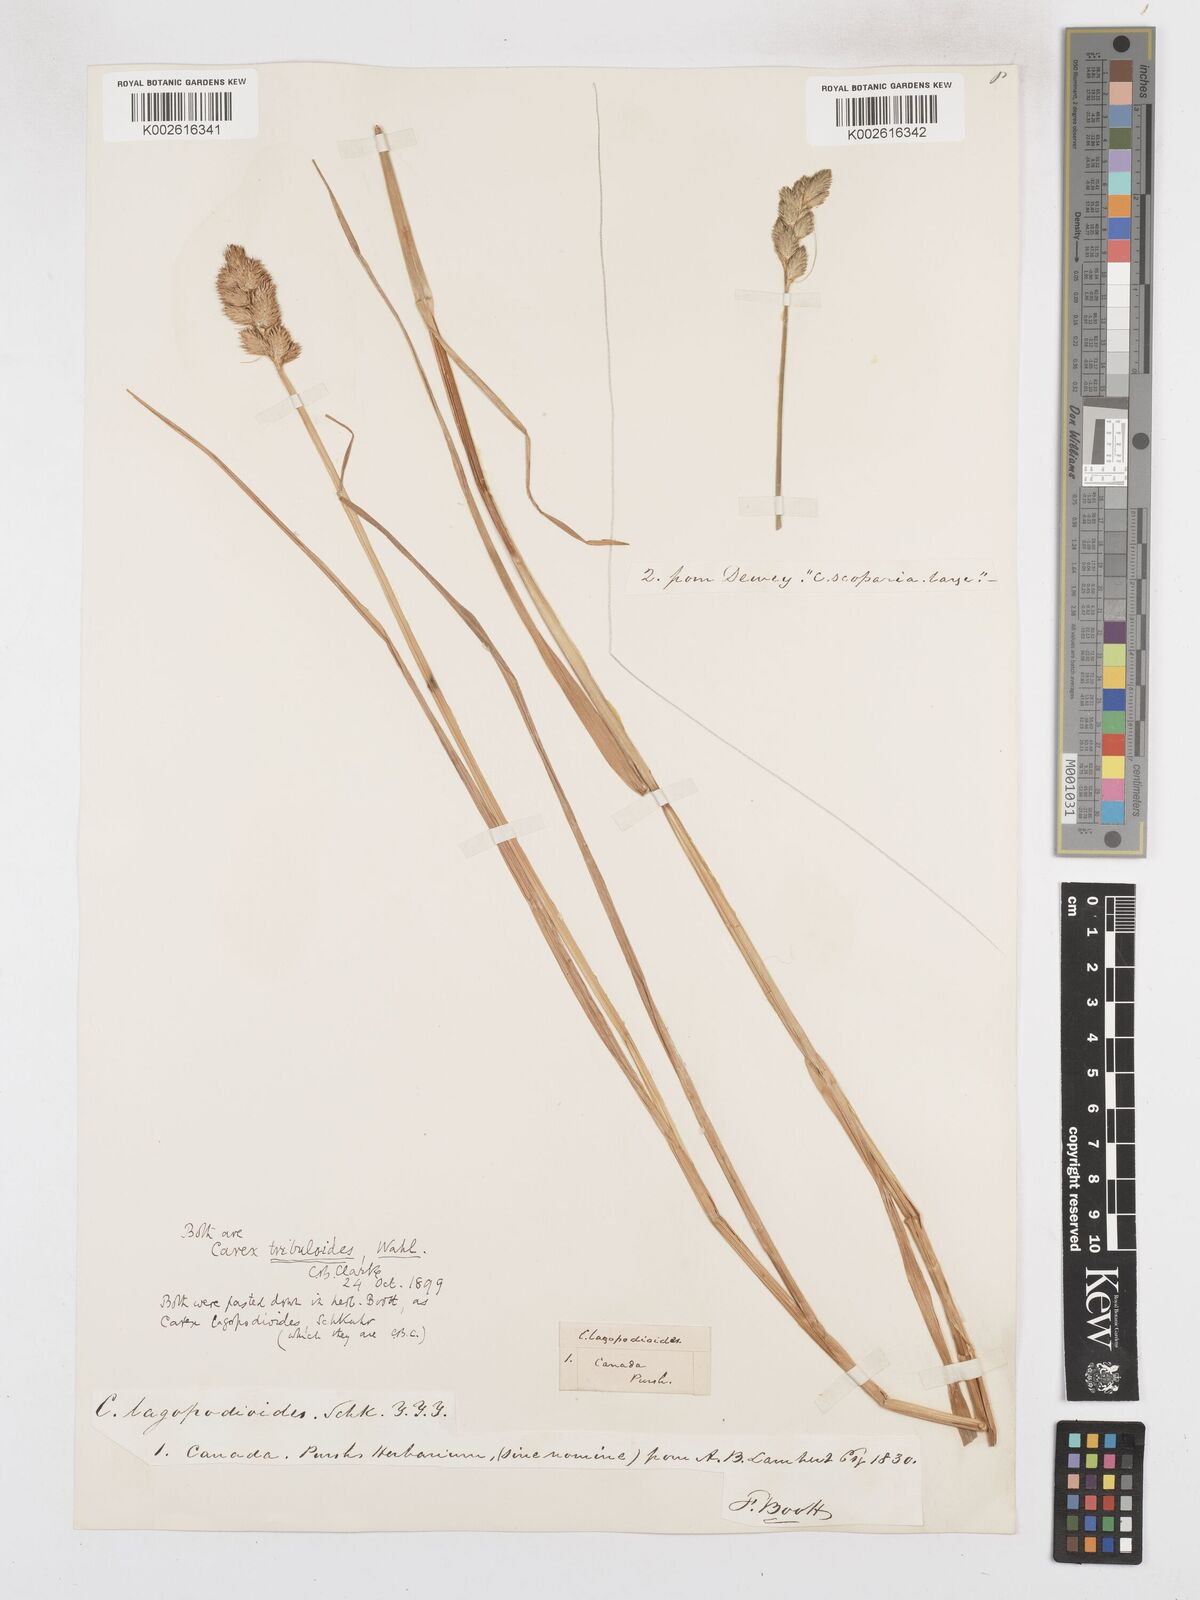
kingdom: Plantae
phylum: Tracheophyta
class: Liliopsida
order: Poales
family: Cyperaceae
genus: Carex
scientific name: Carex tribuloides
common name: Blunt broom sedge
